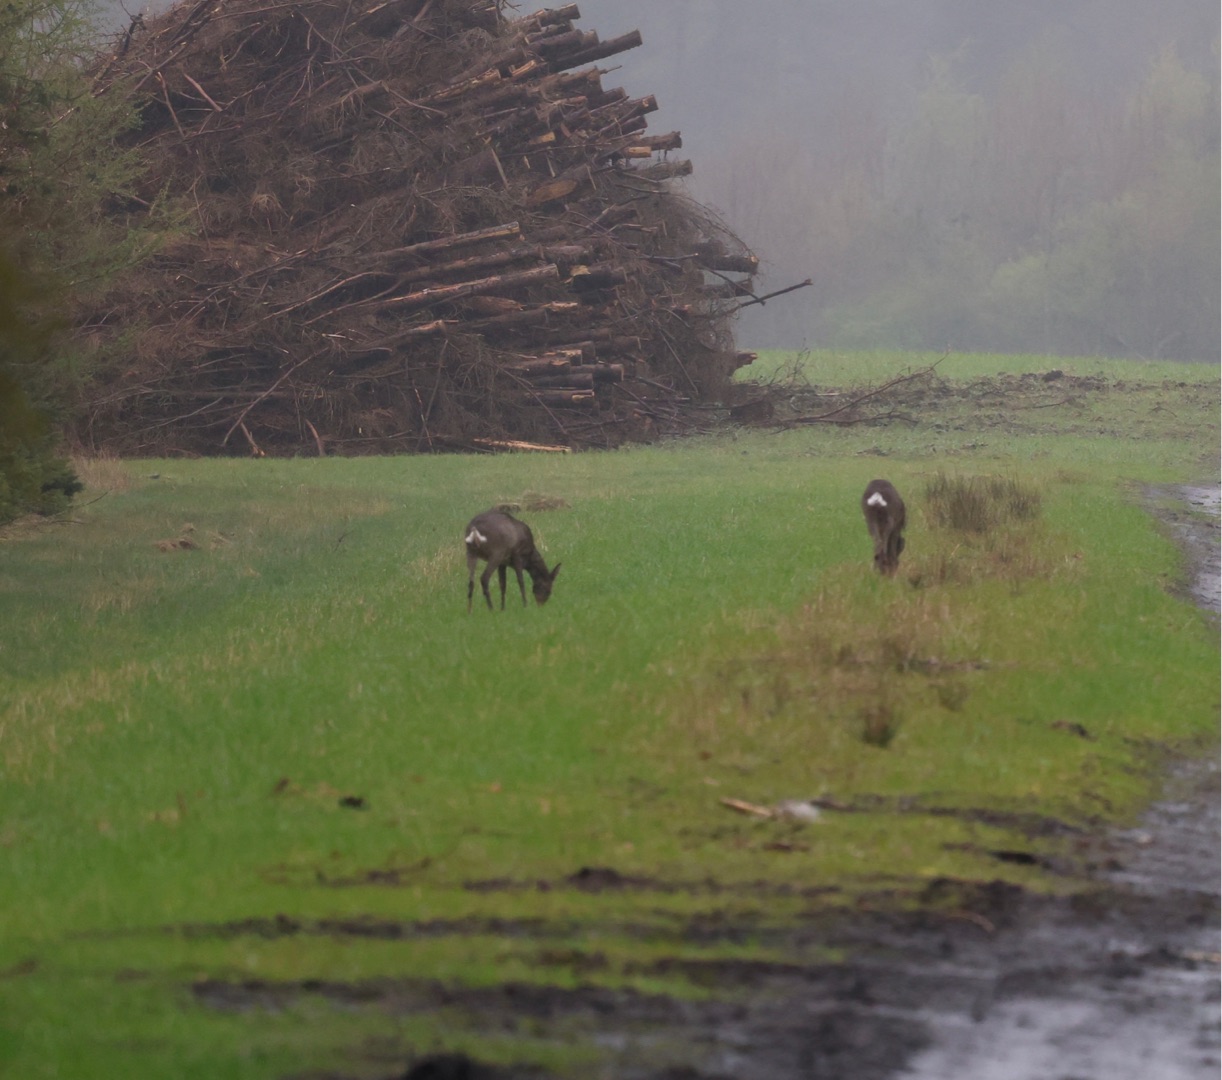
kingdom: Animalia
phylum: Chordata
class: Mammalia
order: Artiodactyla
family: Cervidae
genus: Capreolus
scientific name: Capreolus capreolus
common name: Rådyr
